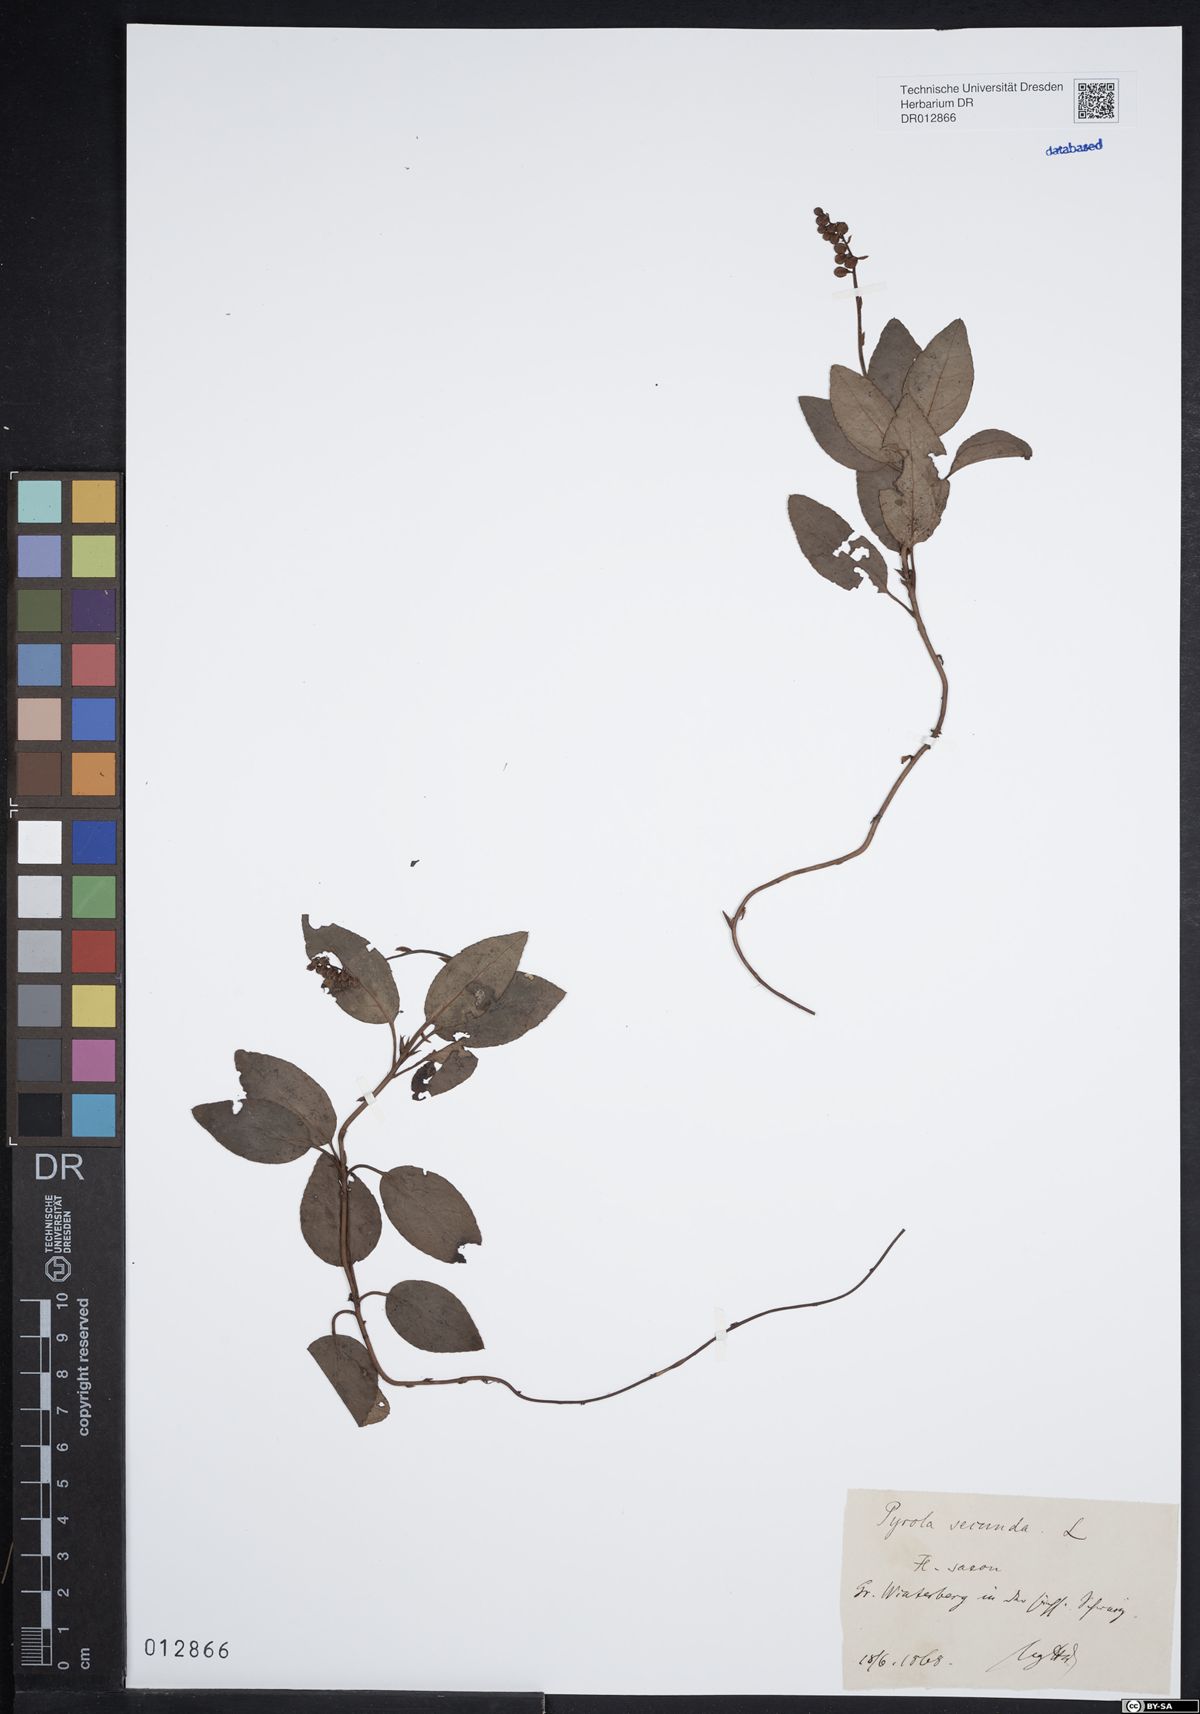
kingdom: Plantae
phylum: Tracheophyta
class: Magnoliopsida
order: Ericales
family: Ericaceae
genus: Orthilia
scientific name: Orthilia secunda
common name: One-sided orthilia
